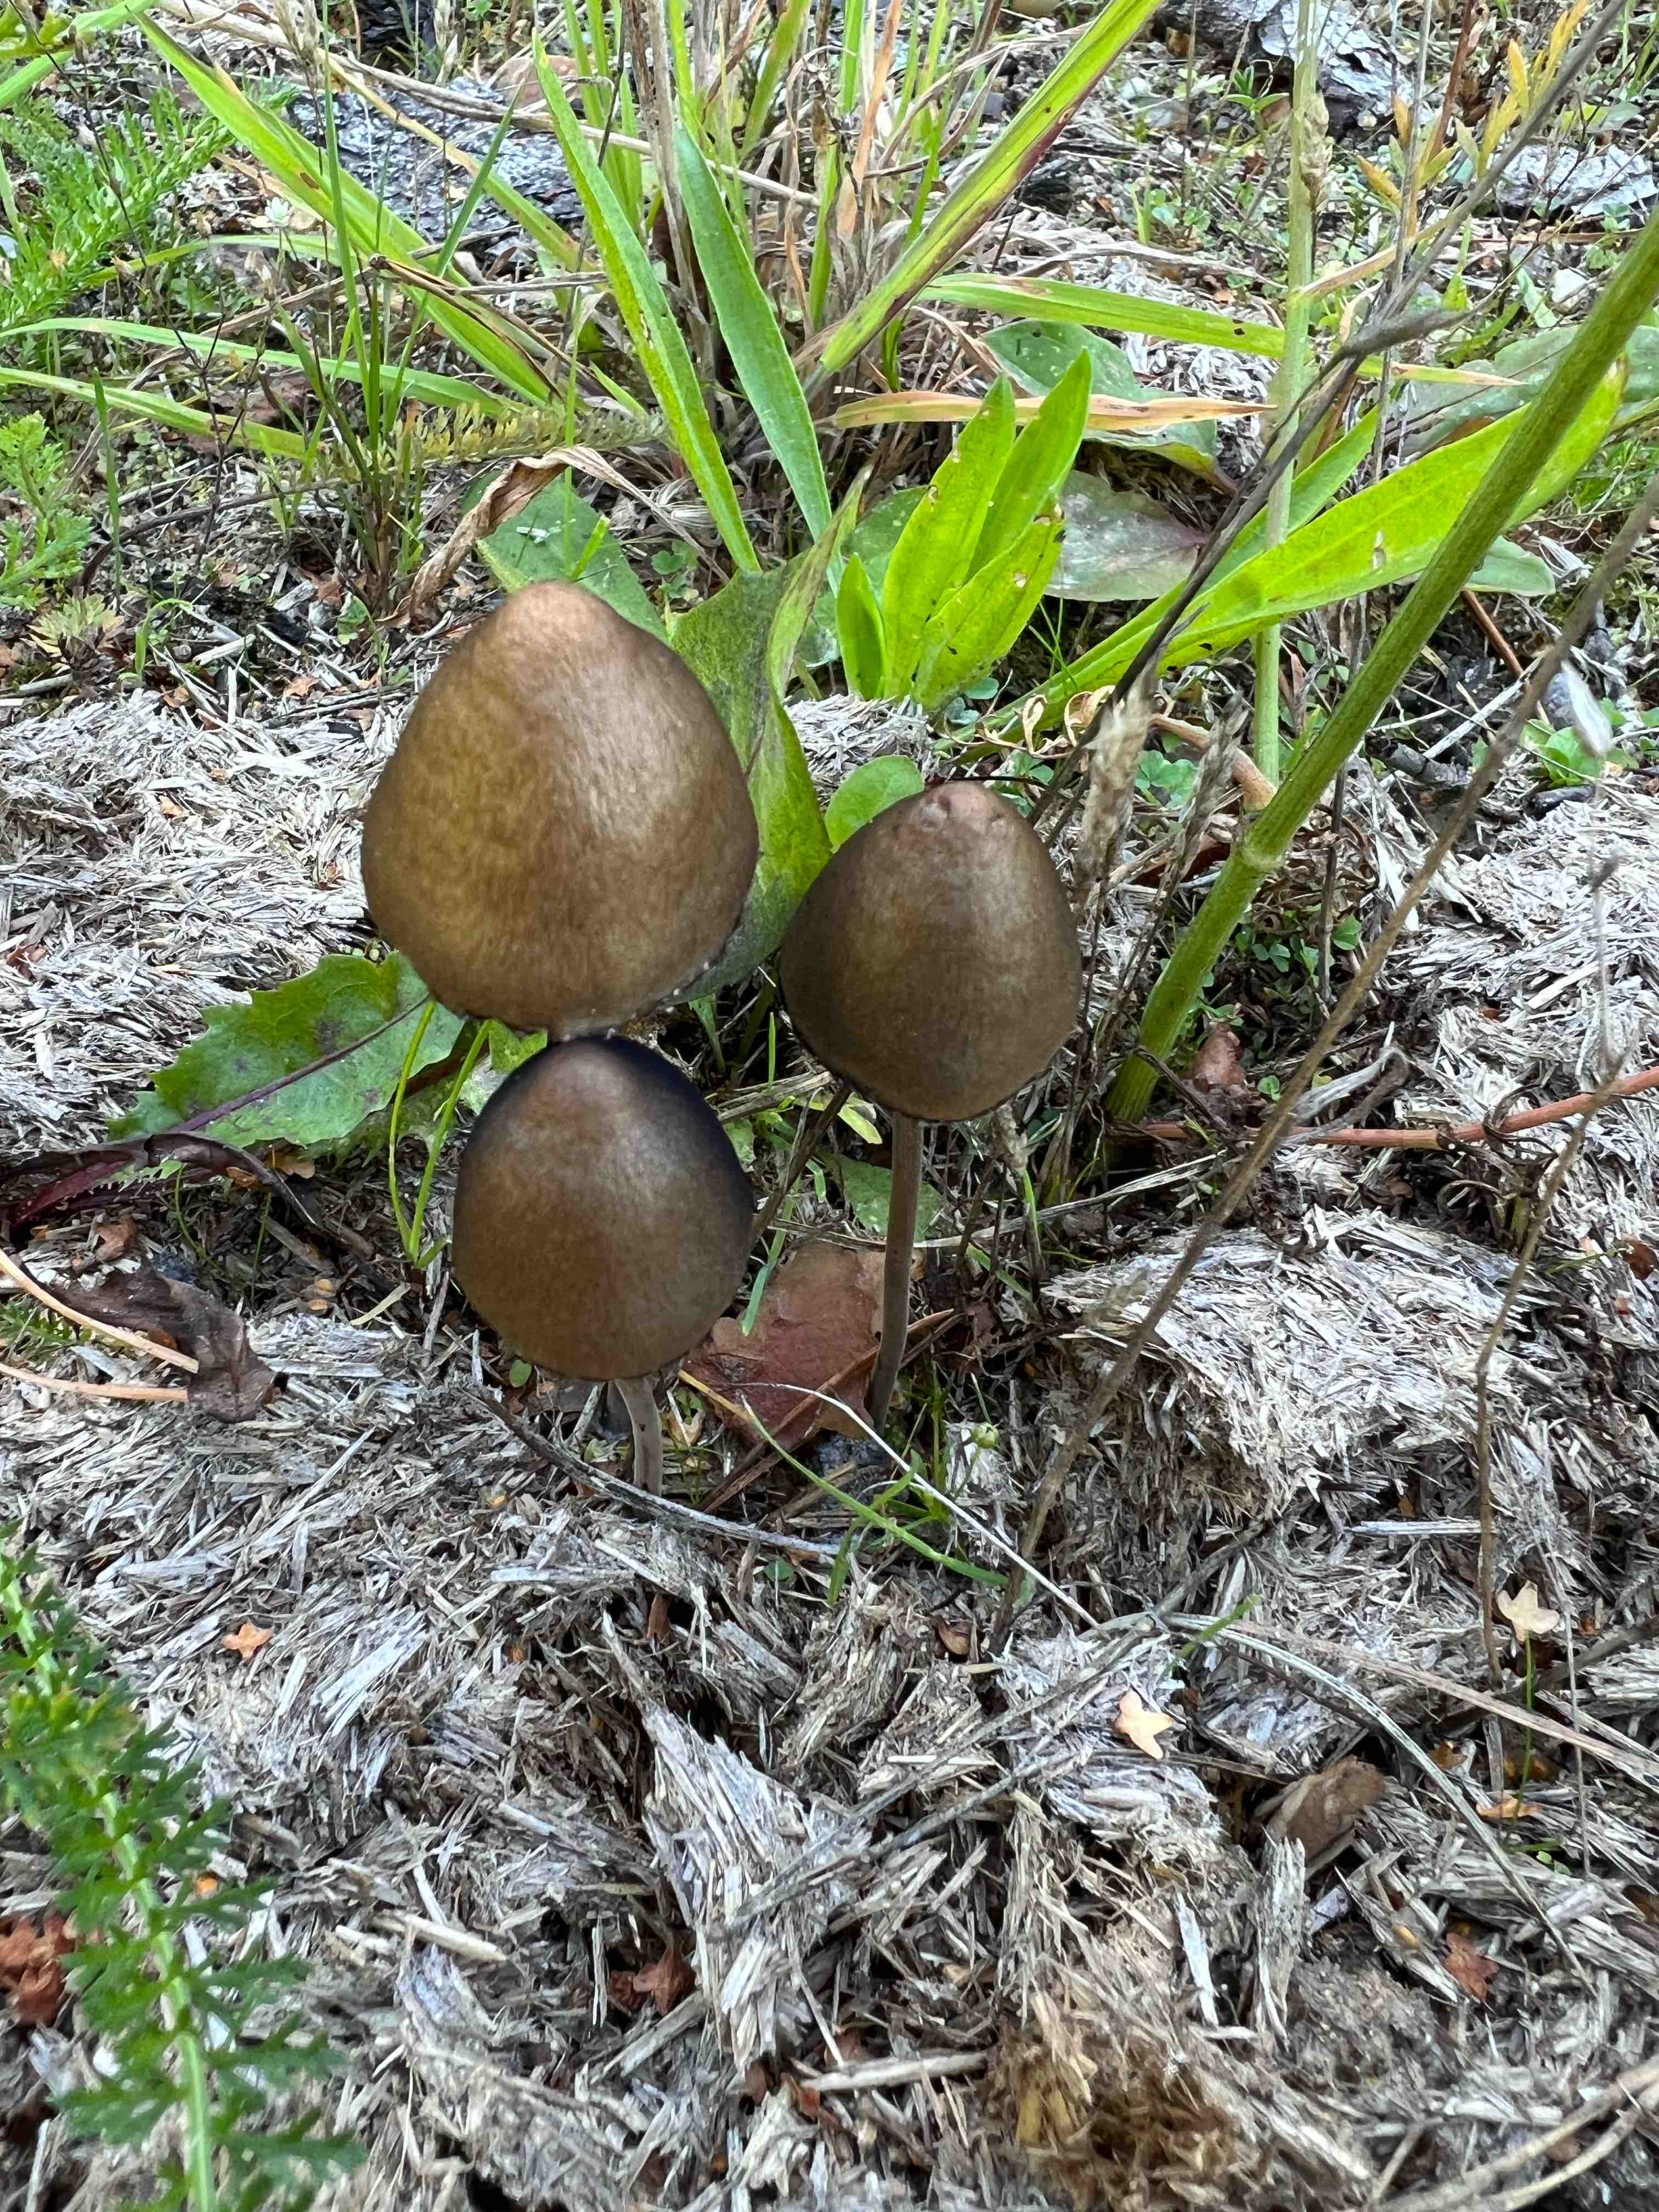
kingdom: Fungi
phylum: Basidiomycota
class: Agaricomycetes
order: Agaricales
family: Bolbitiaceae
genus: Panaeolus
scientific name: Panaeolus papilionaceus
